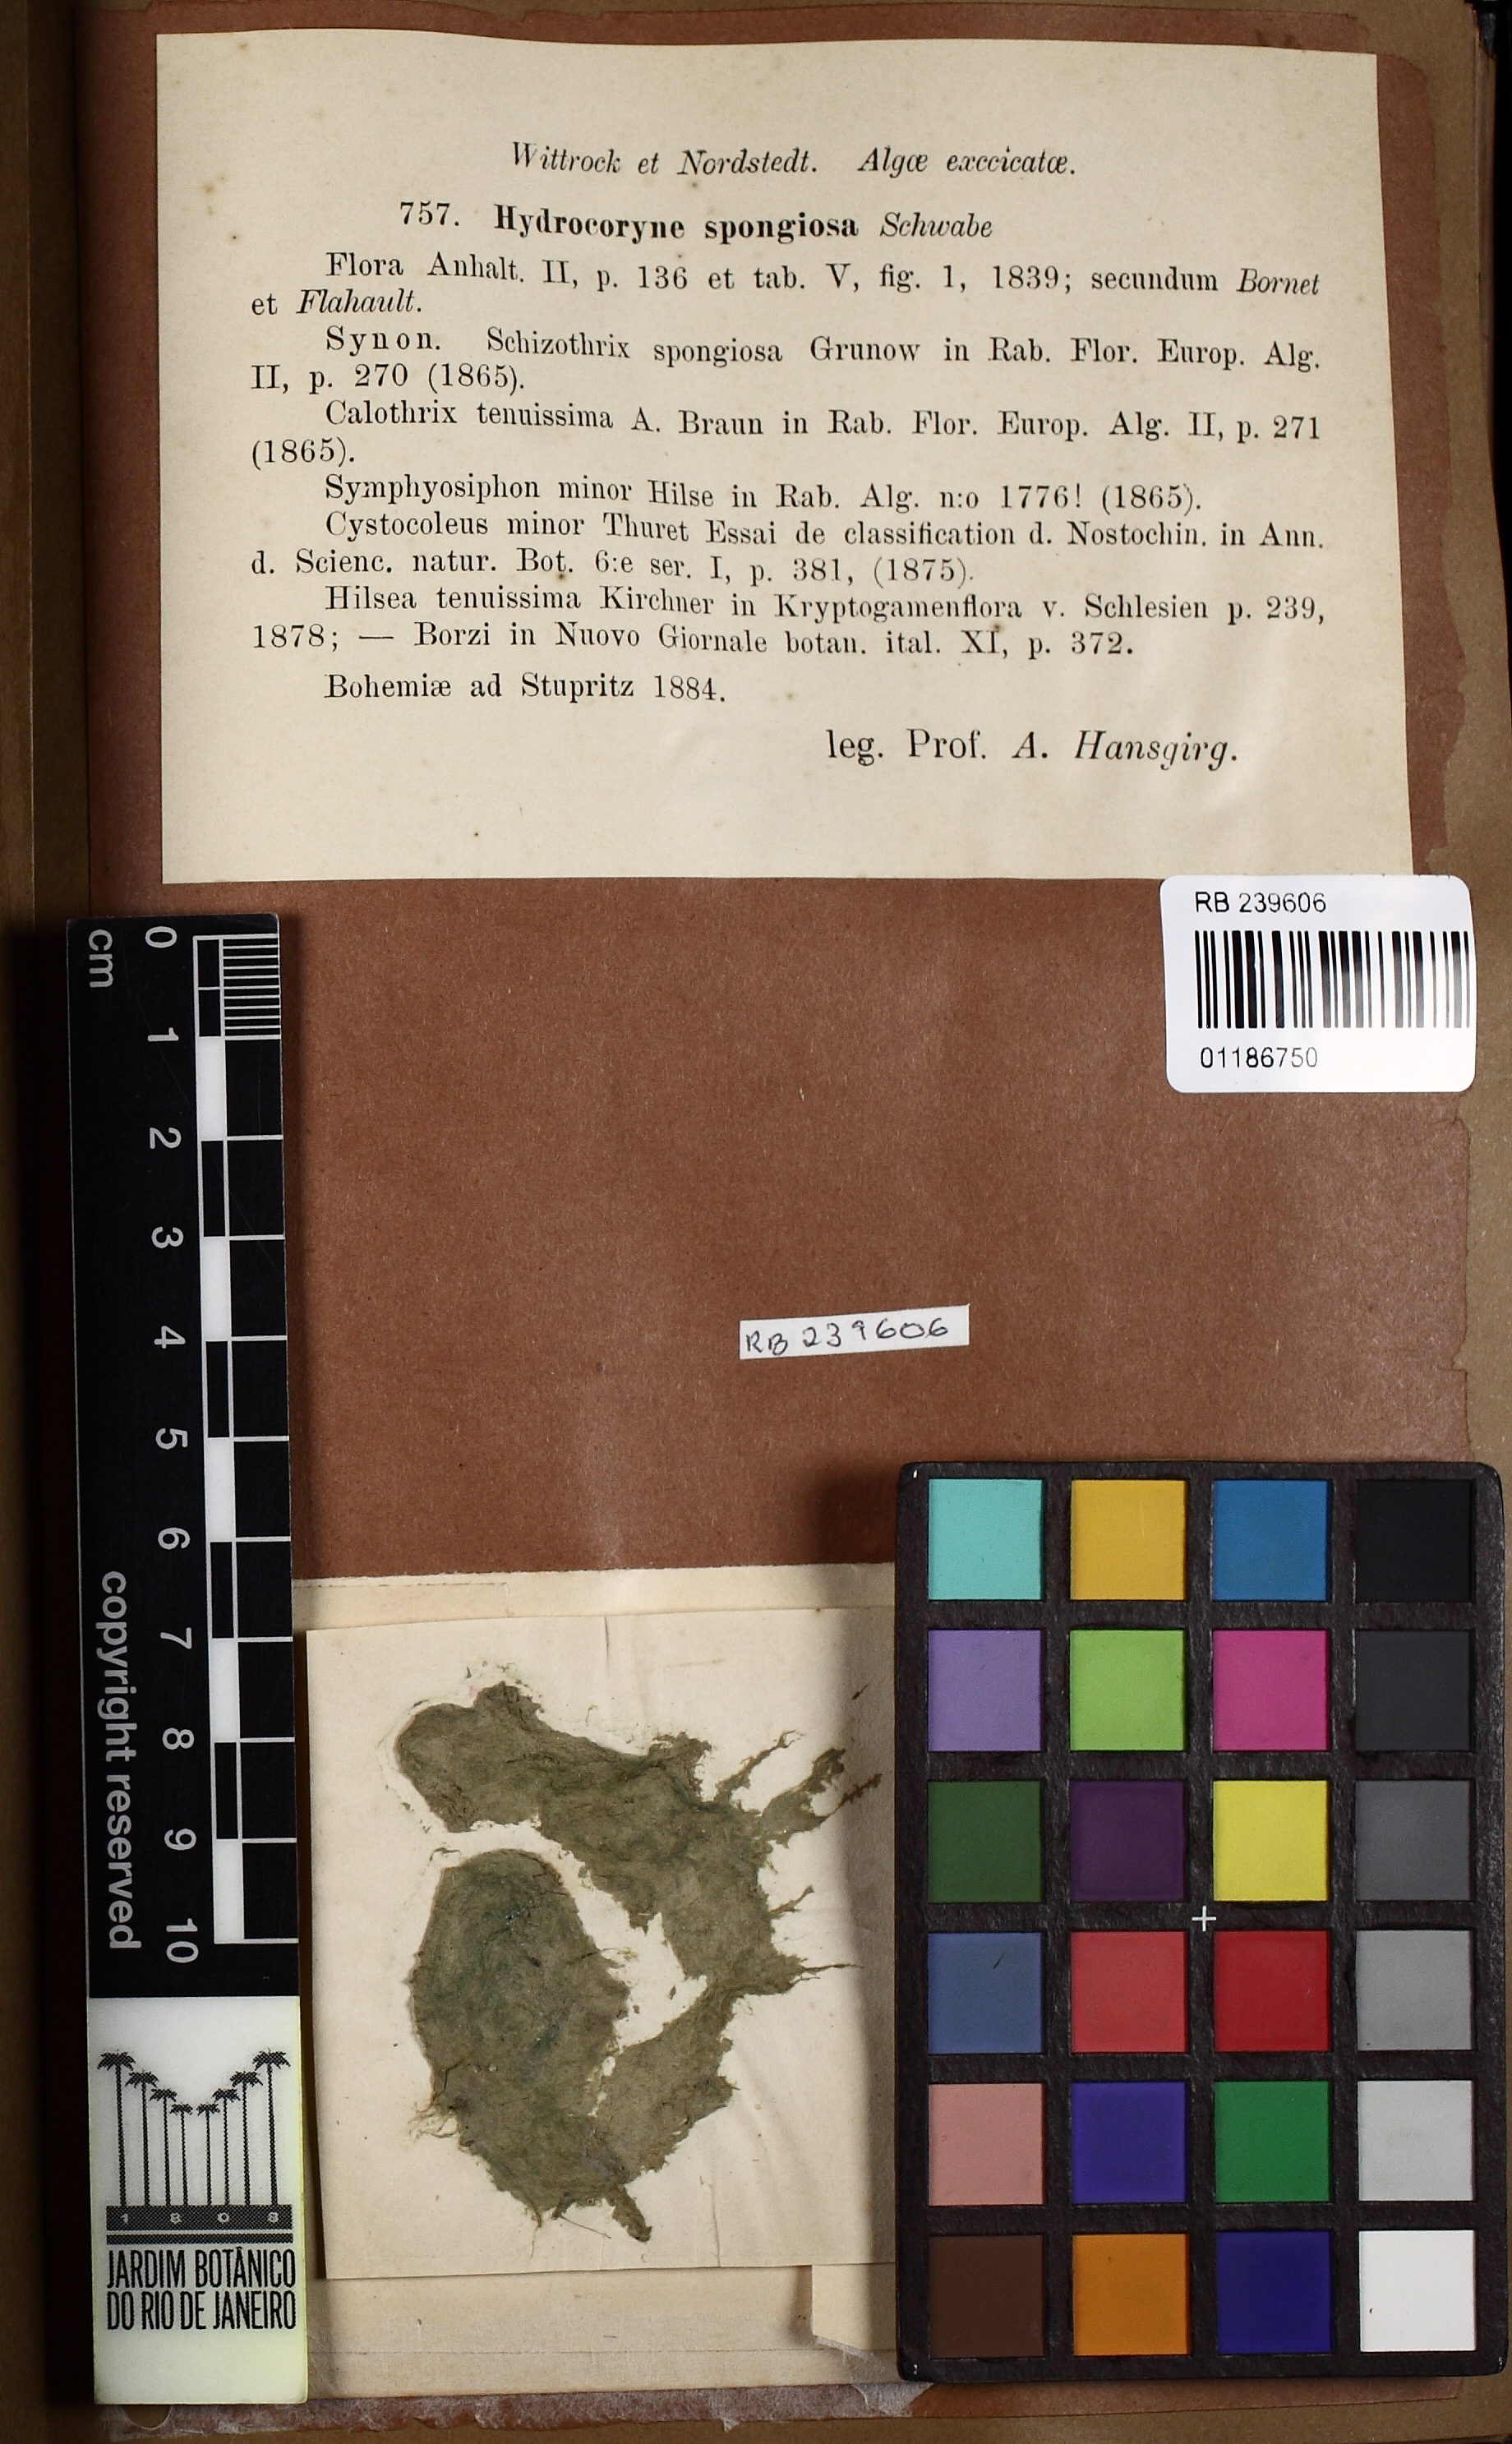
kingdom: Bacteria
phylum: Cyanobacteria
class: Cyanobacteriia
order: Cyanobacteriales
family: Aphanizomenonaceae
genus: Hydrocoryne
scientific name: Hydrocoryne spongiosa
